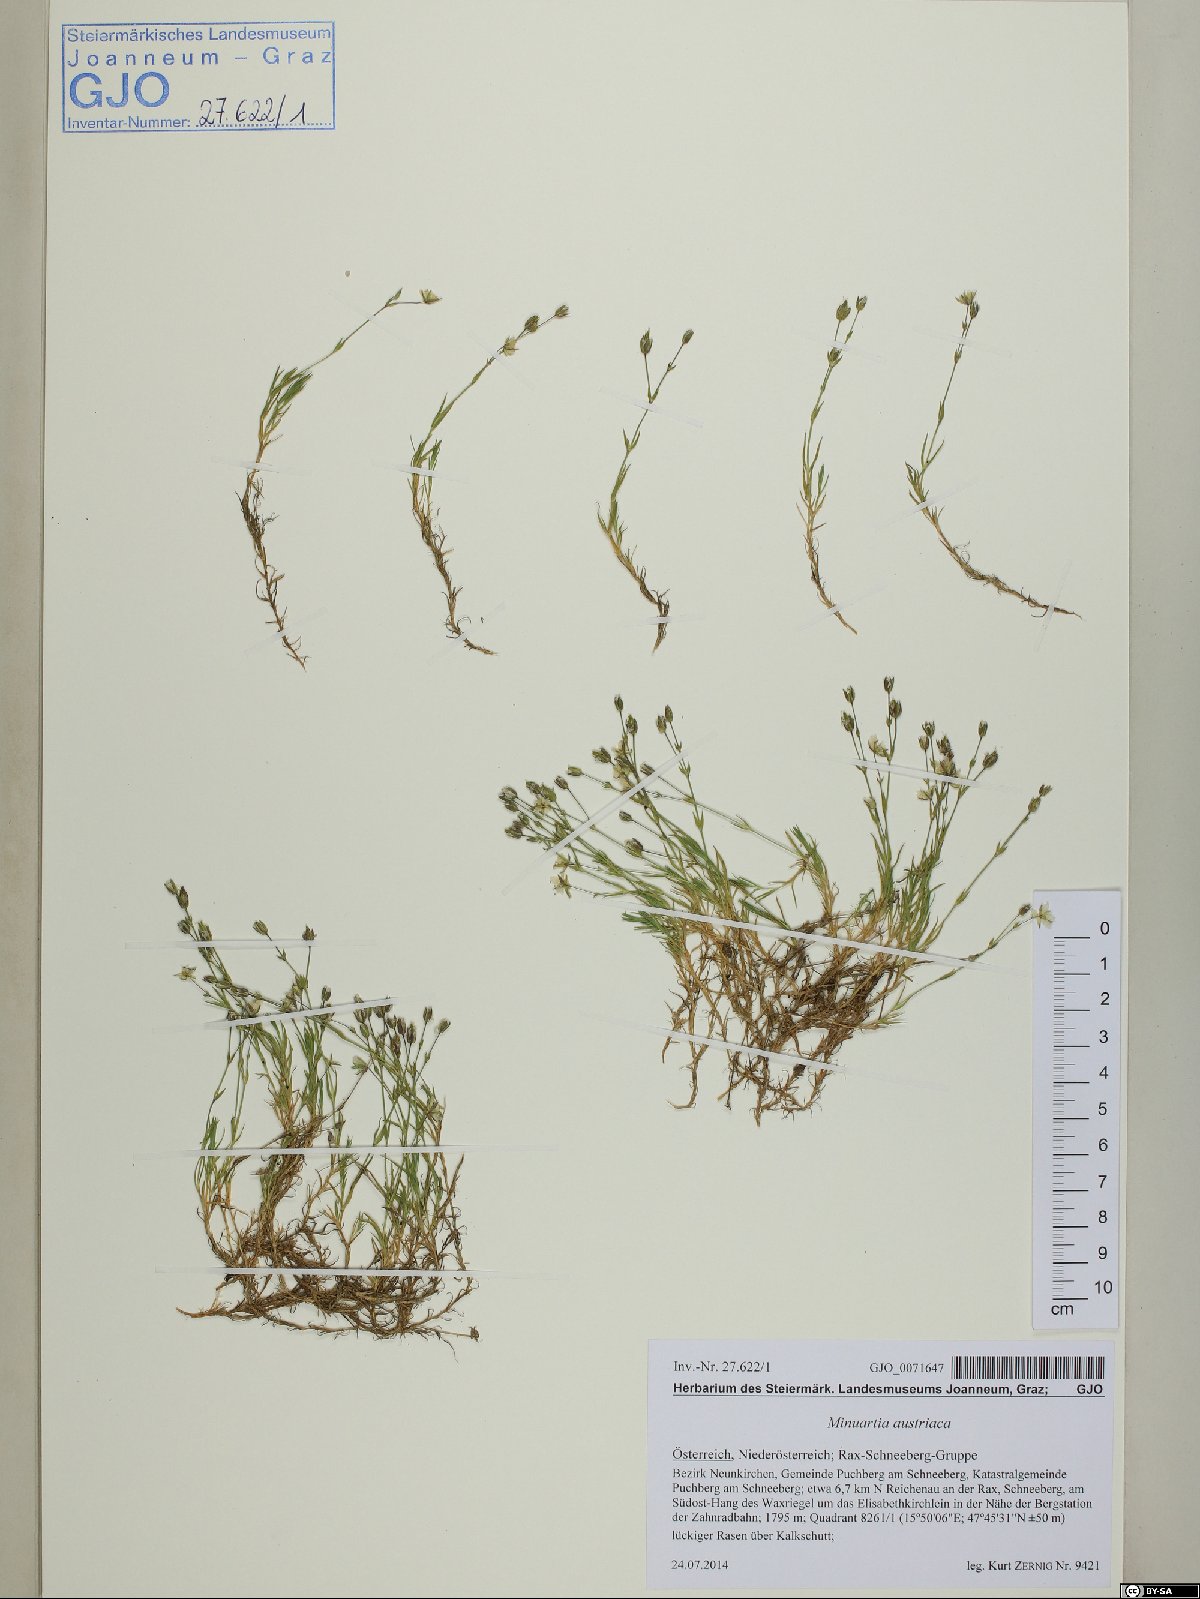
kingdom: Plantae
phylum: Tracheophyta
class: Magnoliopsida
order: Caryophyllales
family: Caryophyllaceae
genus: Sabulina
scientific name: Sabulina austriaca
